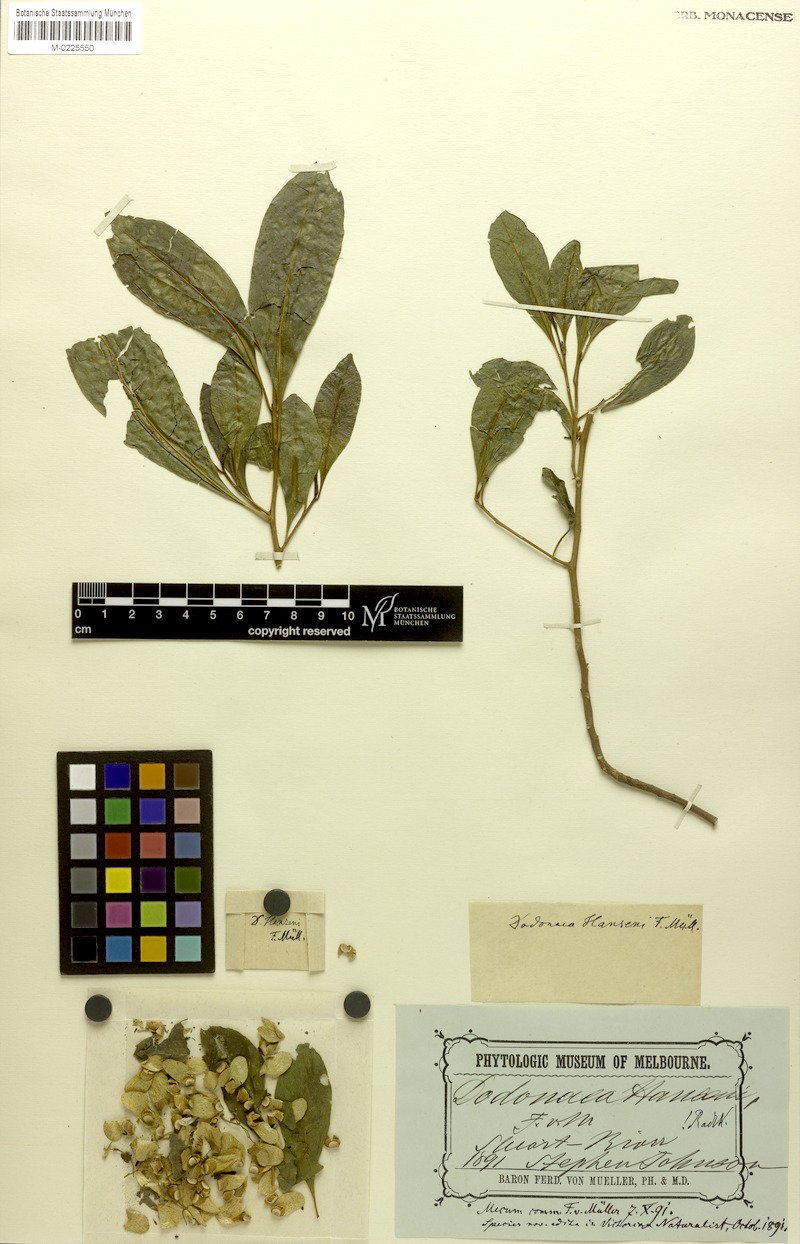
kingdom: Plantae
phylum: Tracheophyta
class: Magnoliopsida
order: Sapindales
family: Sapindaceae
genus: Dodonaea
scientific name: Dodonaea platyptera
